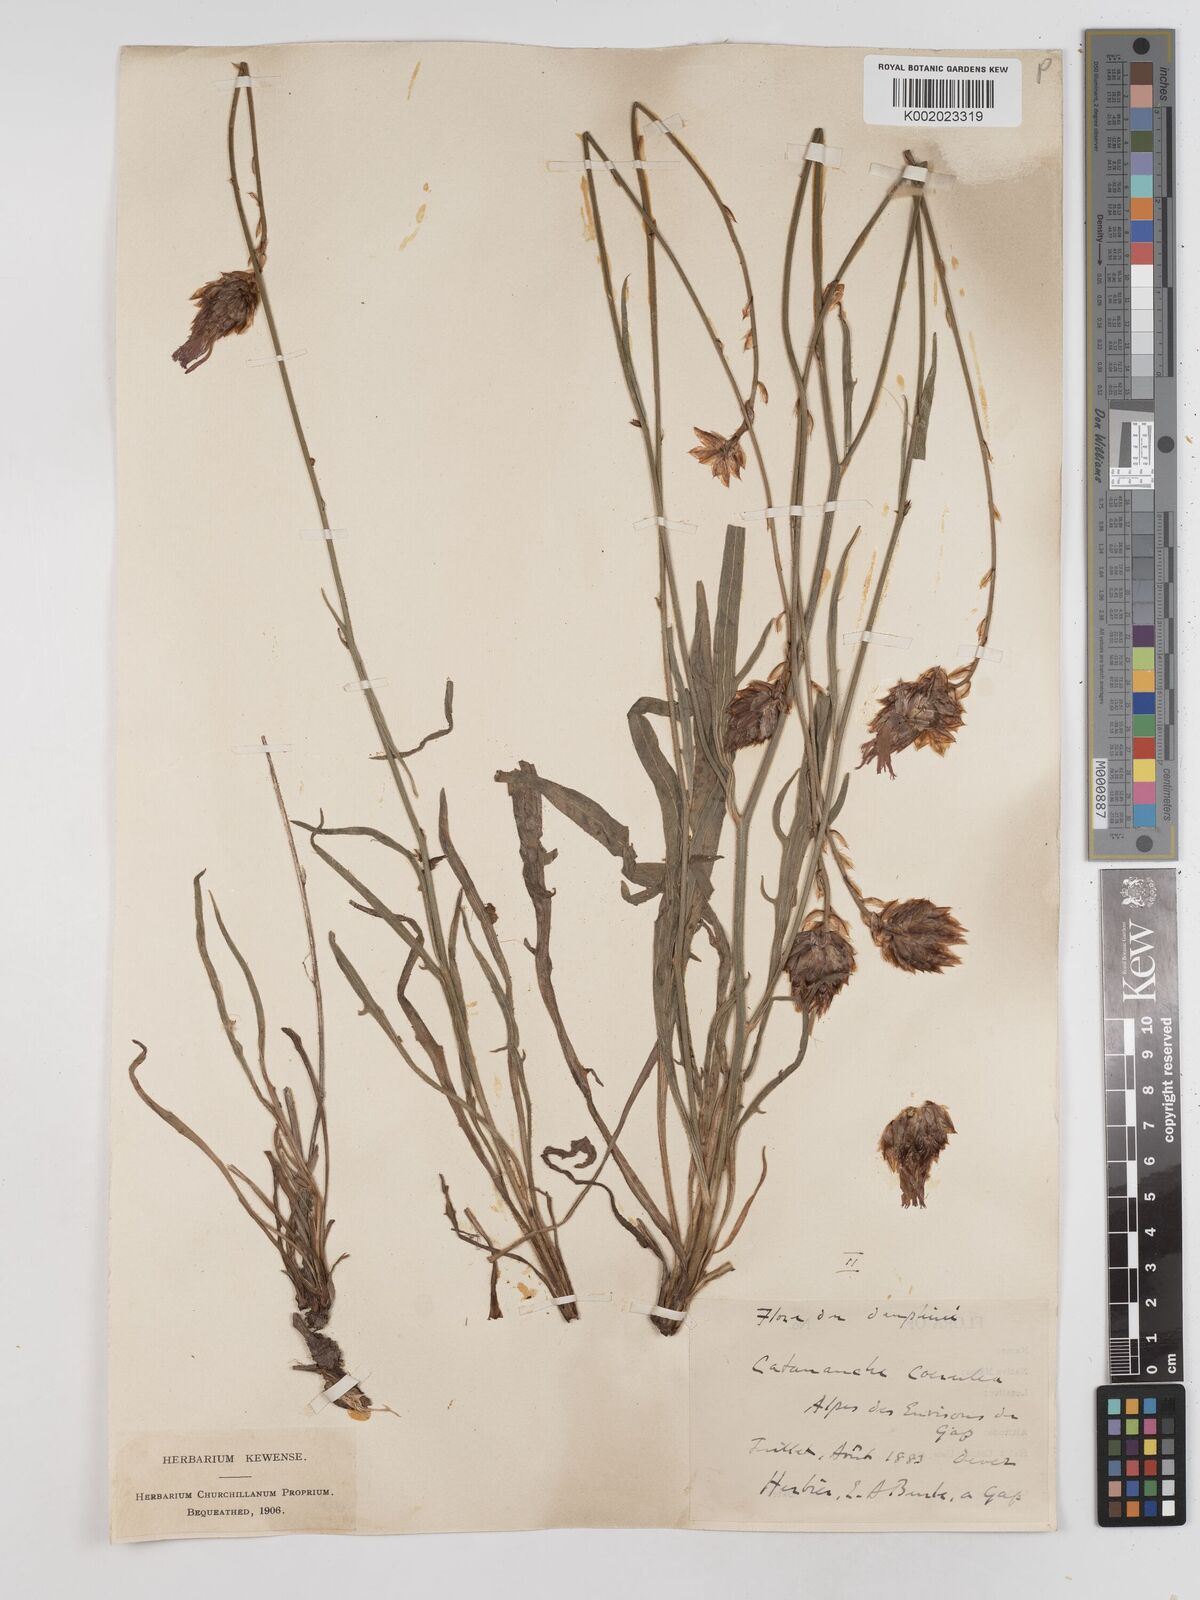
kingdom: Plantae
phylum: Tracheophyta
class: Magnoliopsida
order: Asterales
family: Asteraceae
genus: Catananche
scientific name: Catananche caerulea
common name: Blue cupidone
